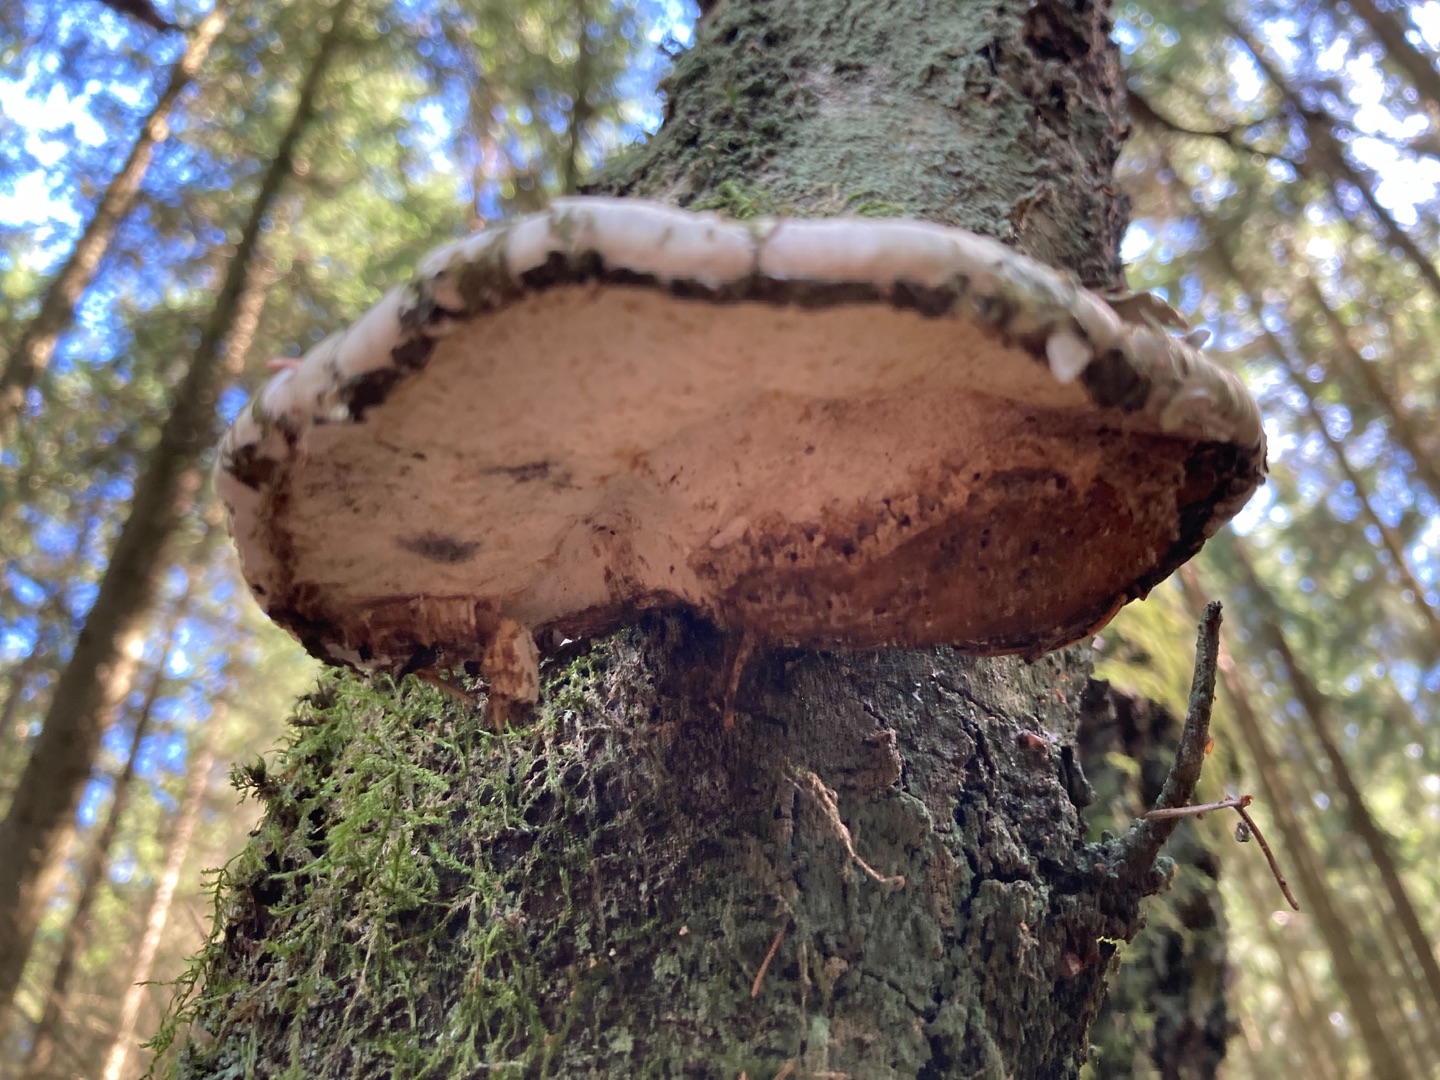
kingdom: Fungi
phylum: Basidiomycota
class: Agaricomycetes
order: Polyporales
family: Fomitopsidaceae
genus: Fomitopsis
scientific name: Fomitopsis betulina
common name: Birkeporesvamp
